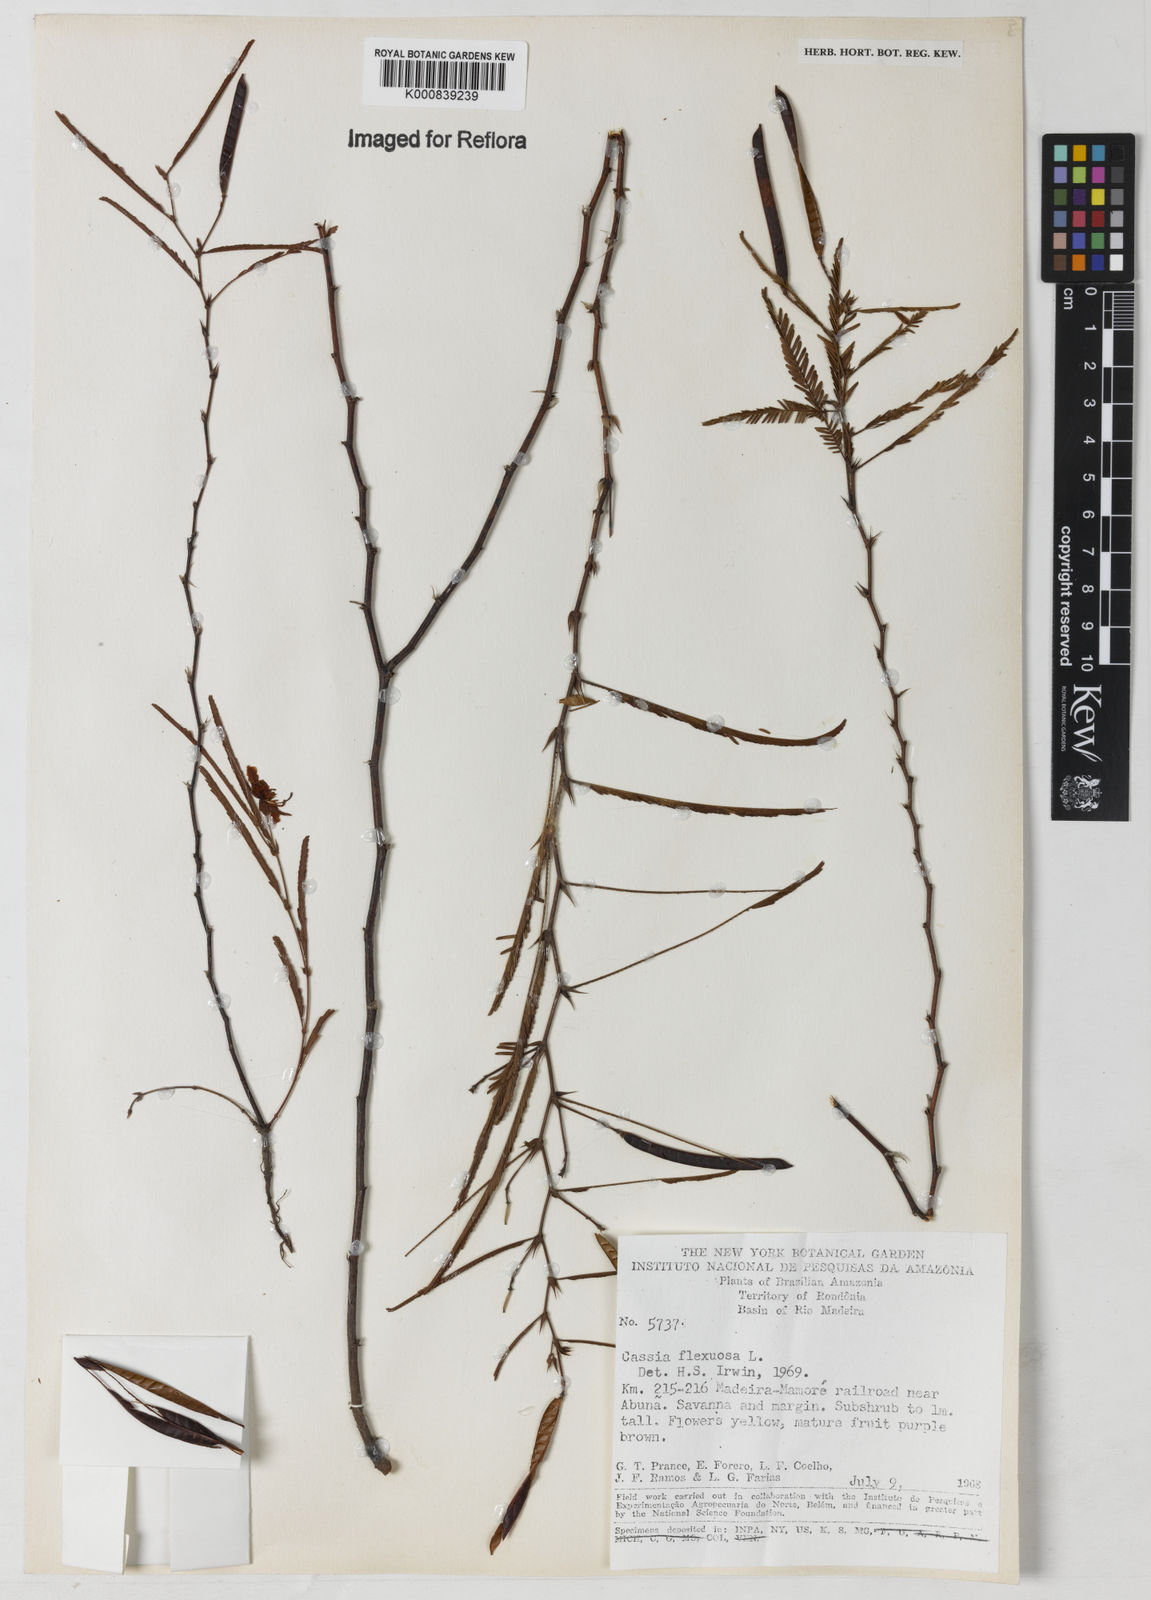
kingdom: Plantae
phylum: Tracheophyta
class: Magnoliopsida
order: Fabales
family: Fabaceae
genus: Chamaecrista
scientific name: Chamaecrista flexuosa
